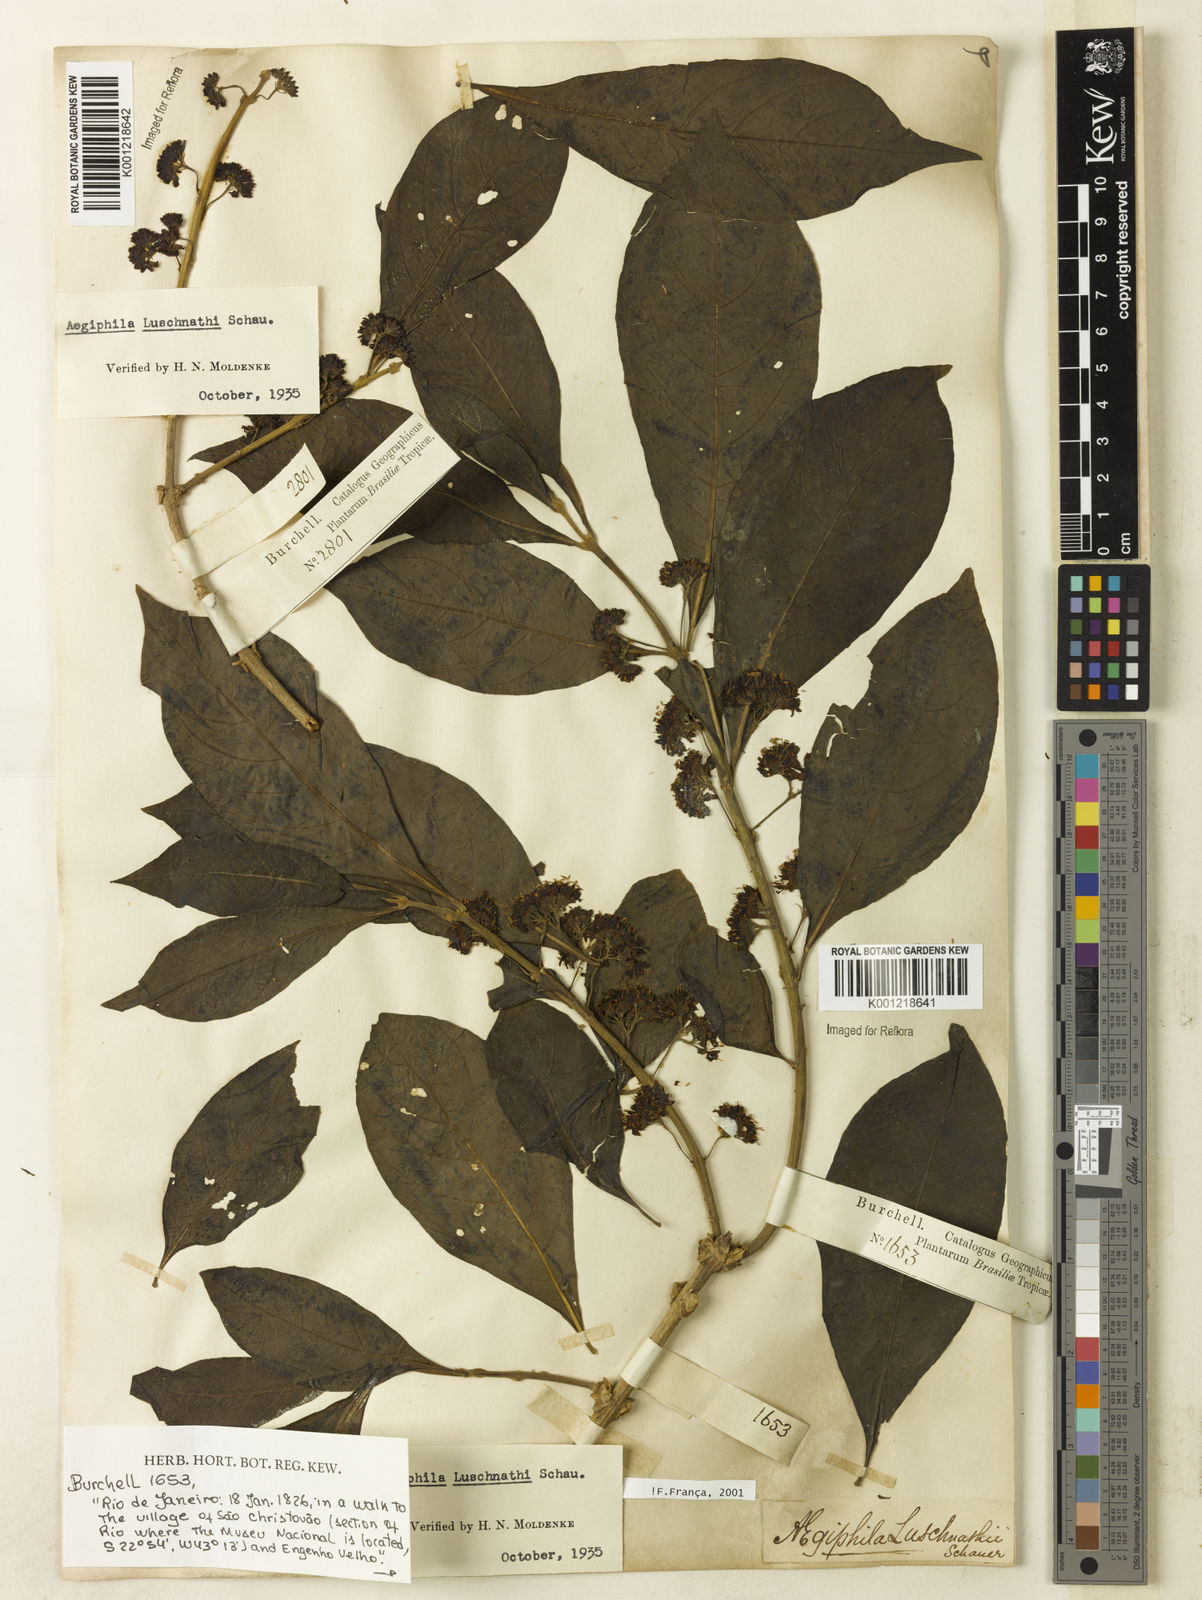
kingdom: Plantae
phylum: Tracheophyta
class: Magnoliopsida
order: Lamiales
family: Lamiaceae
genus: Aegiphila
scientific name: Aegiphila luschnathii
